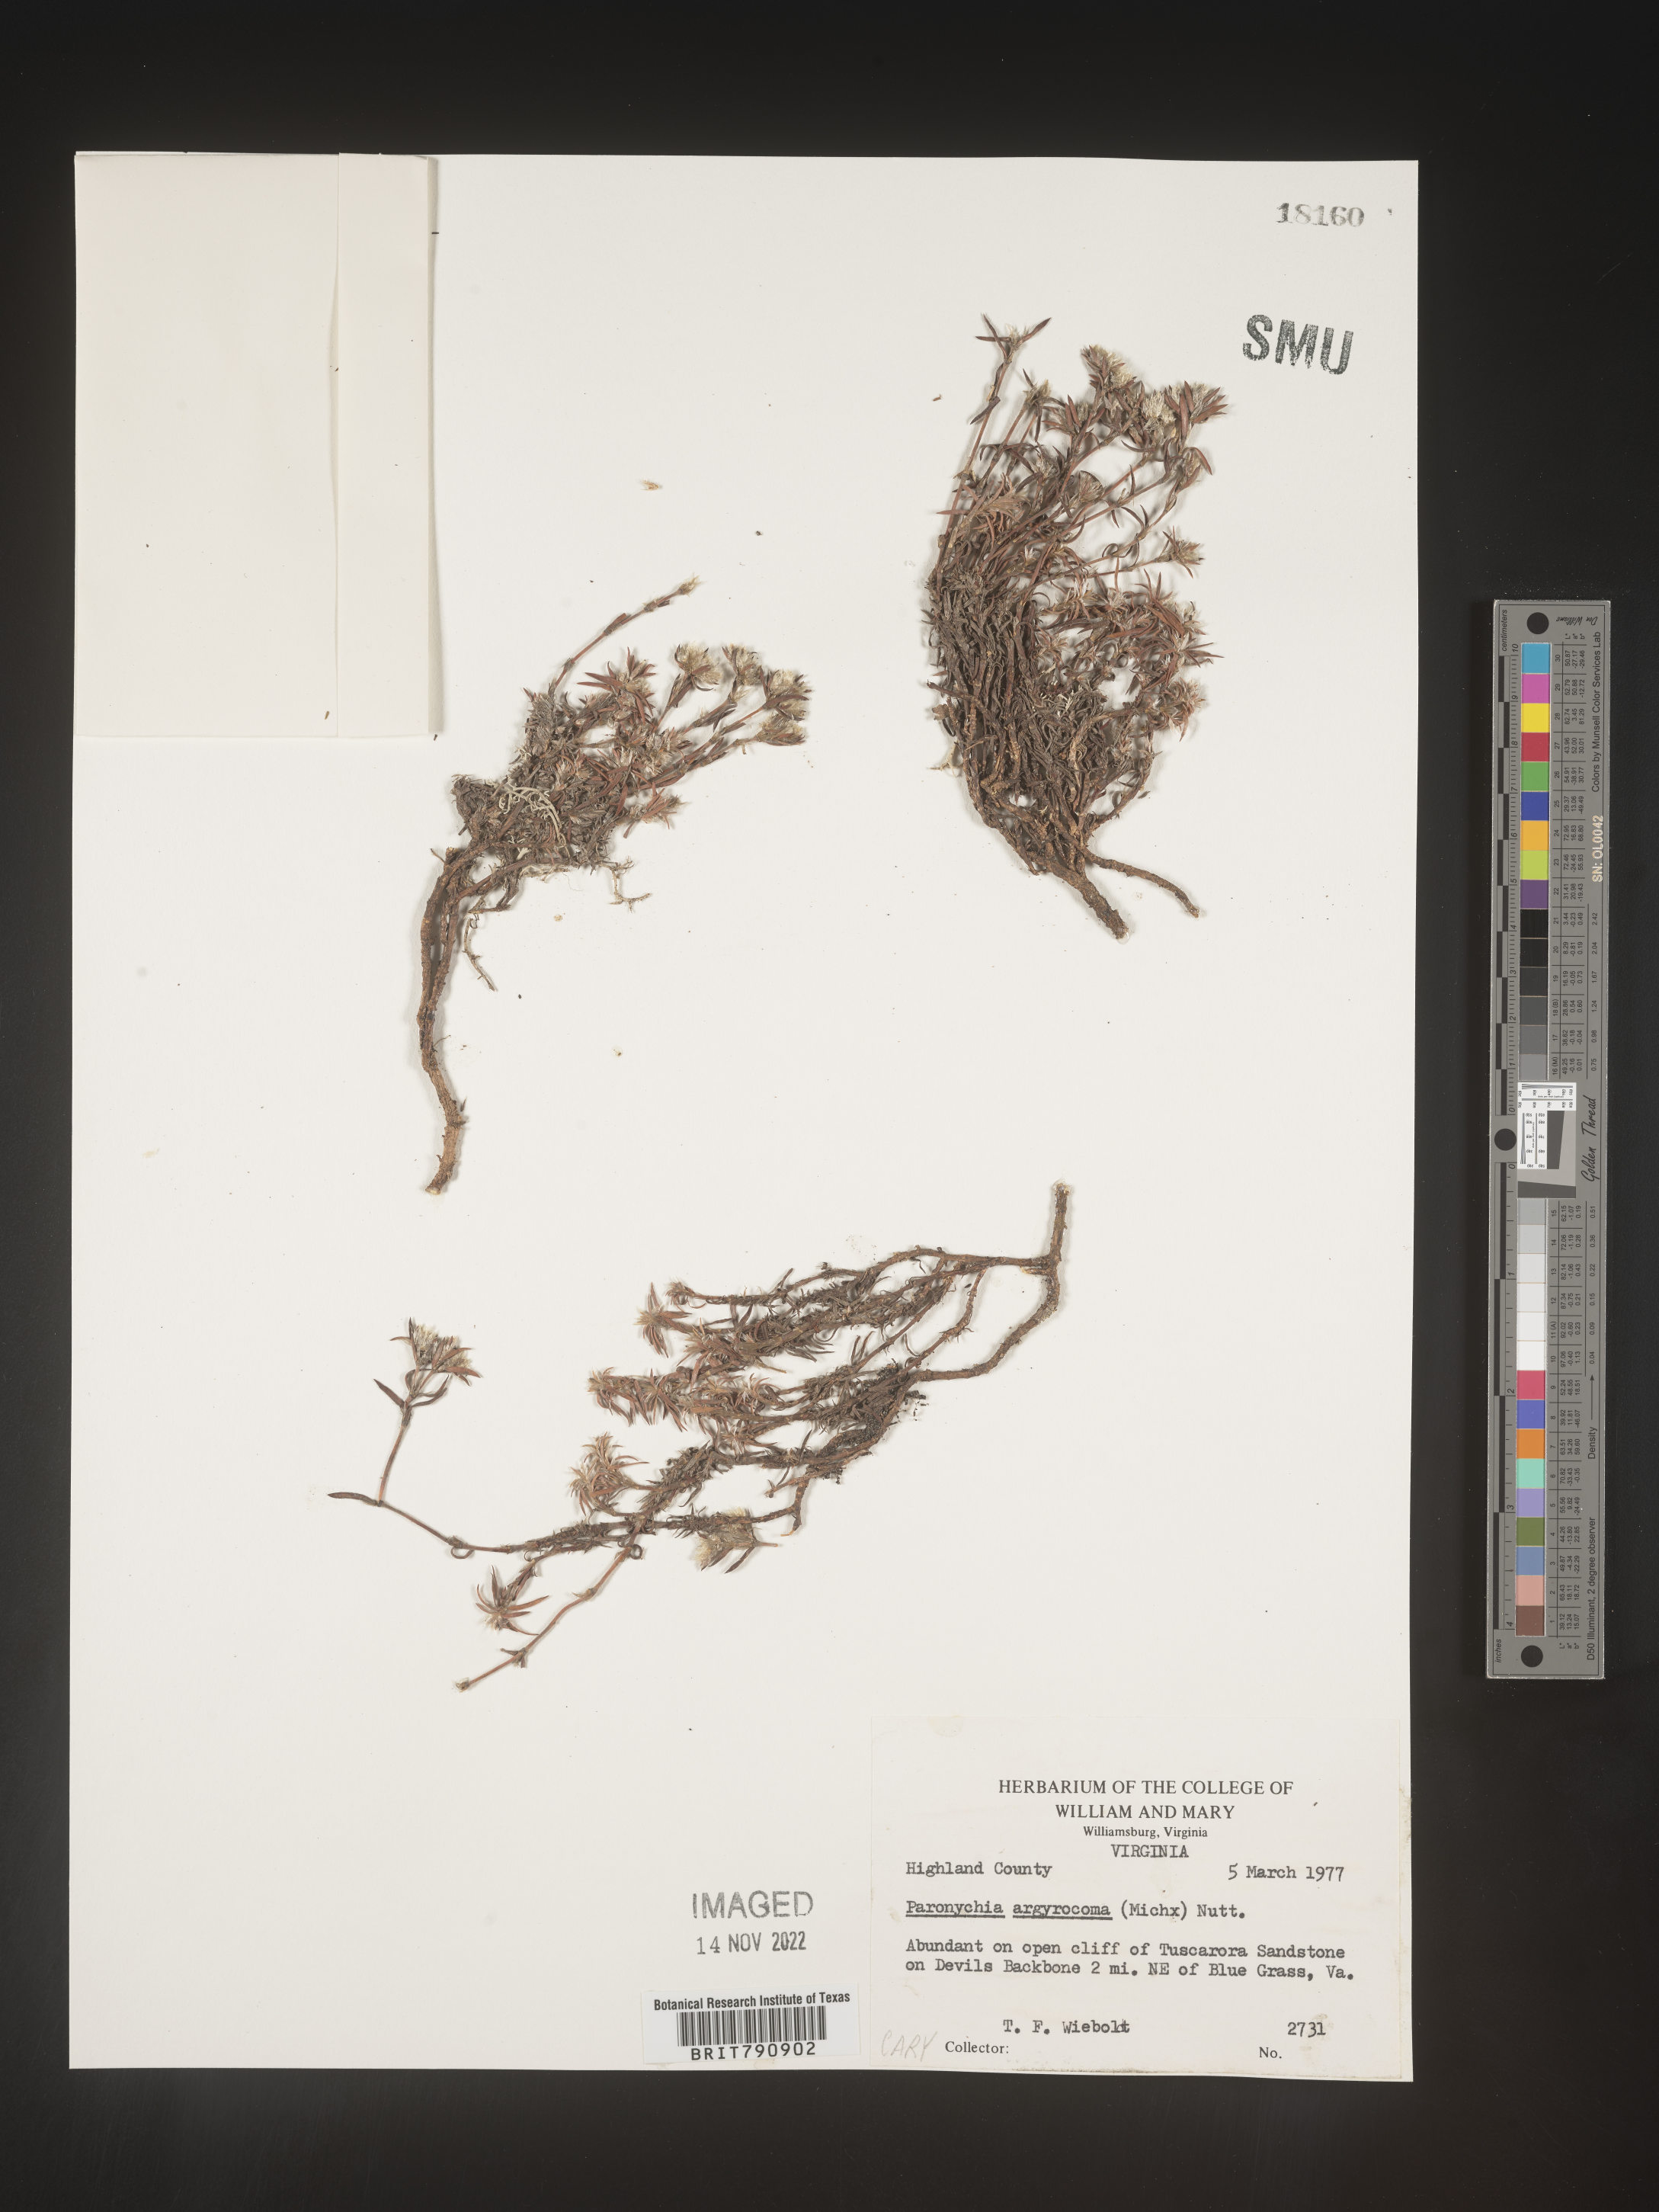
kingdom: Plantae
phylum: Tracheophyta
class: Magnoliopsida
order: Caryophyllales
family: Caryophyllaceae
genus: Paronychia
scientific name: Paronychia argyrocoma
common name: Silverling
